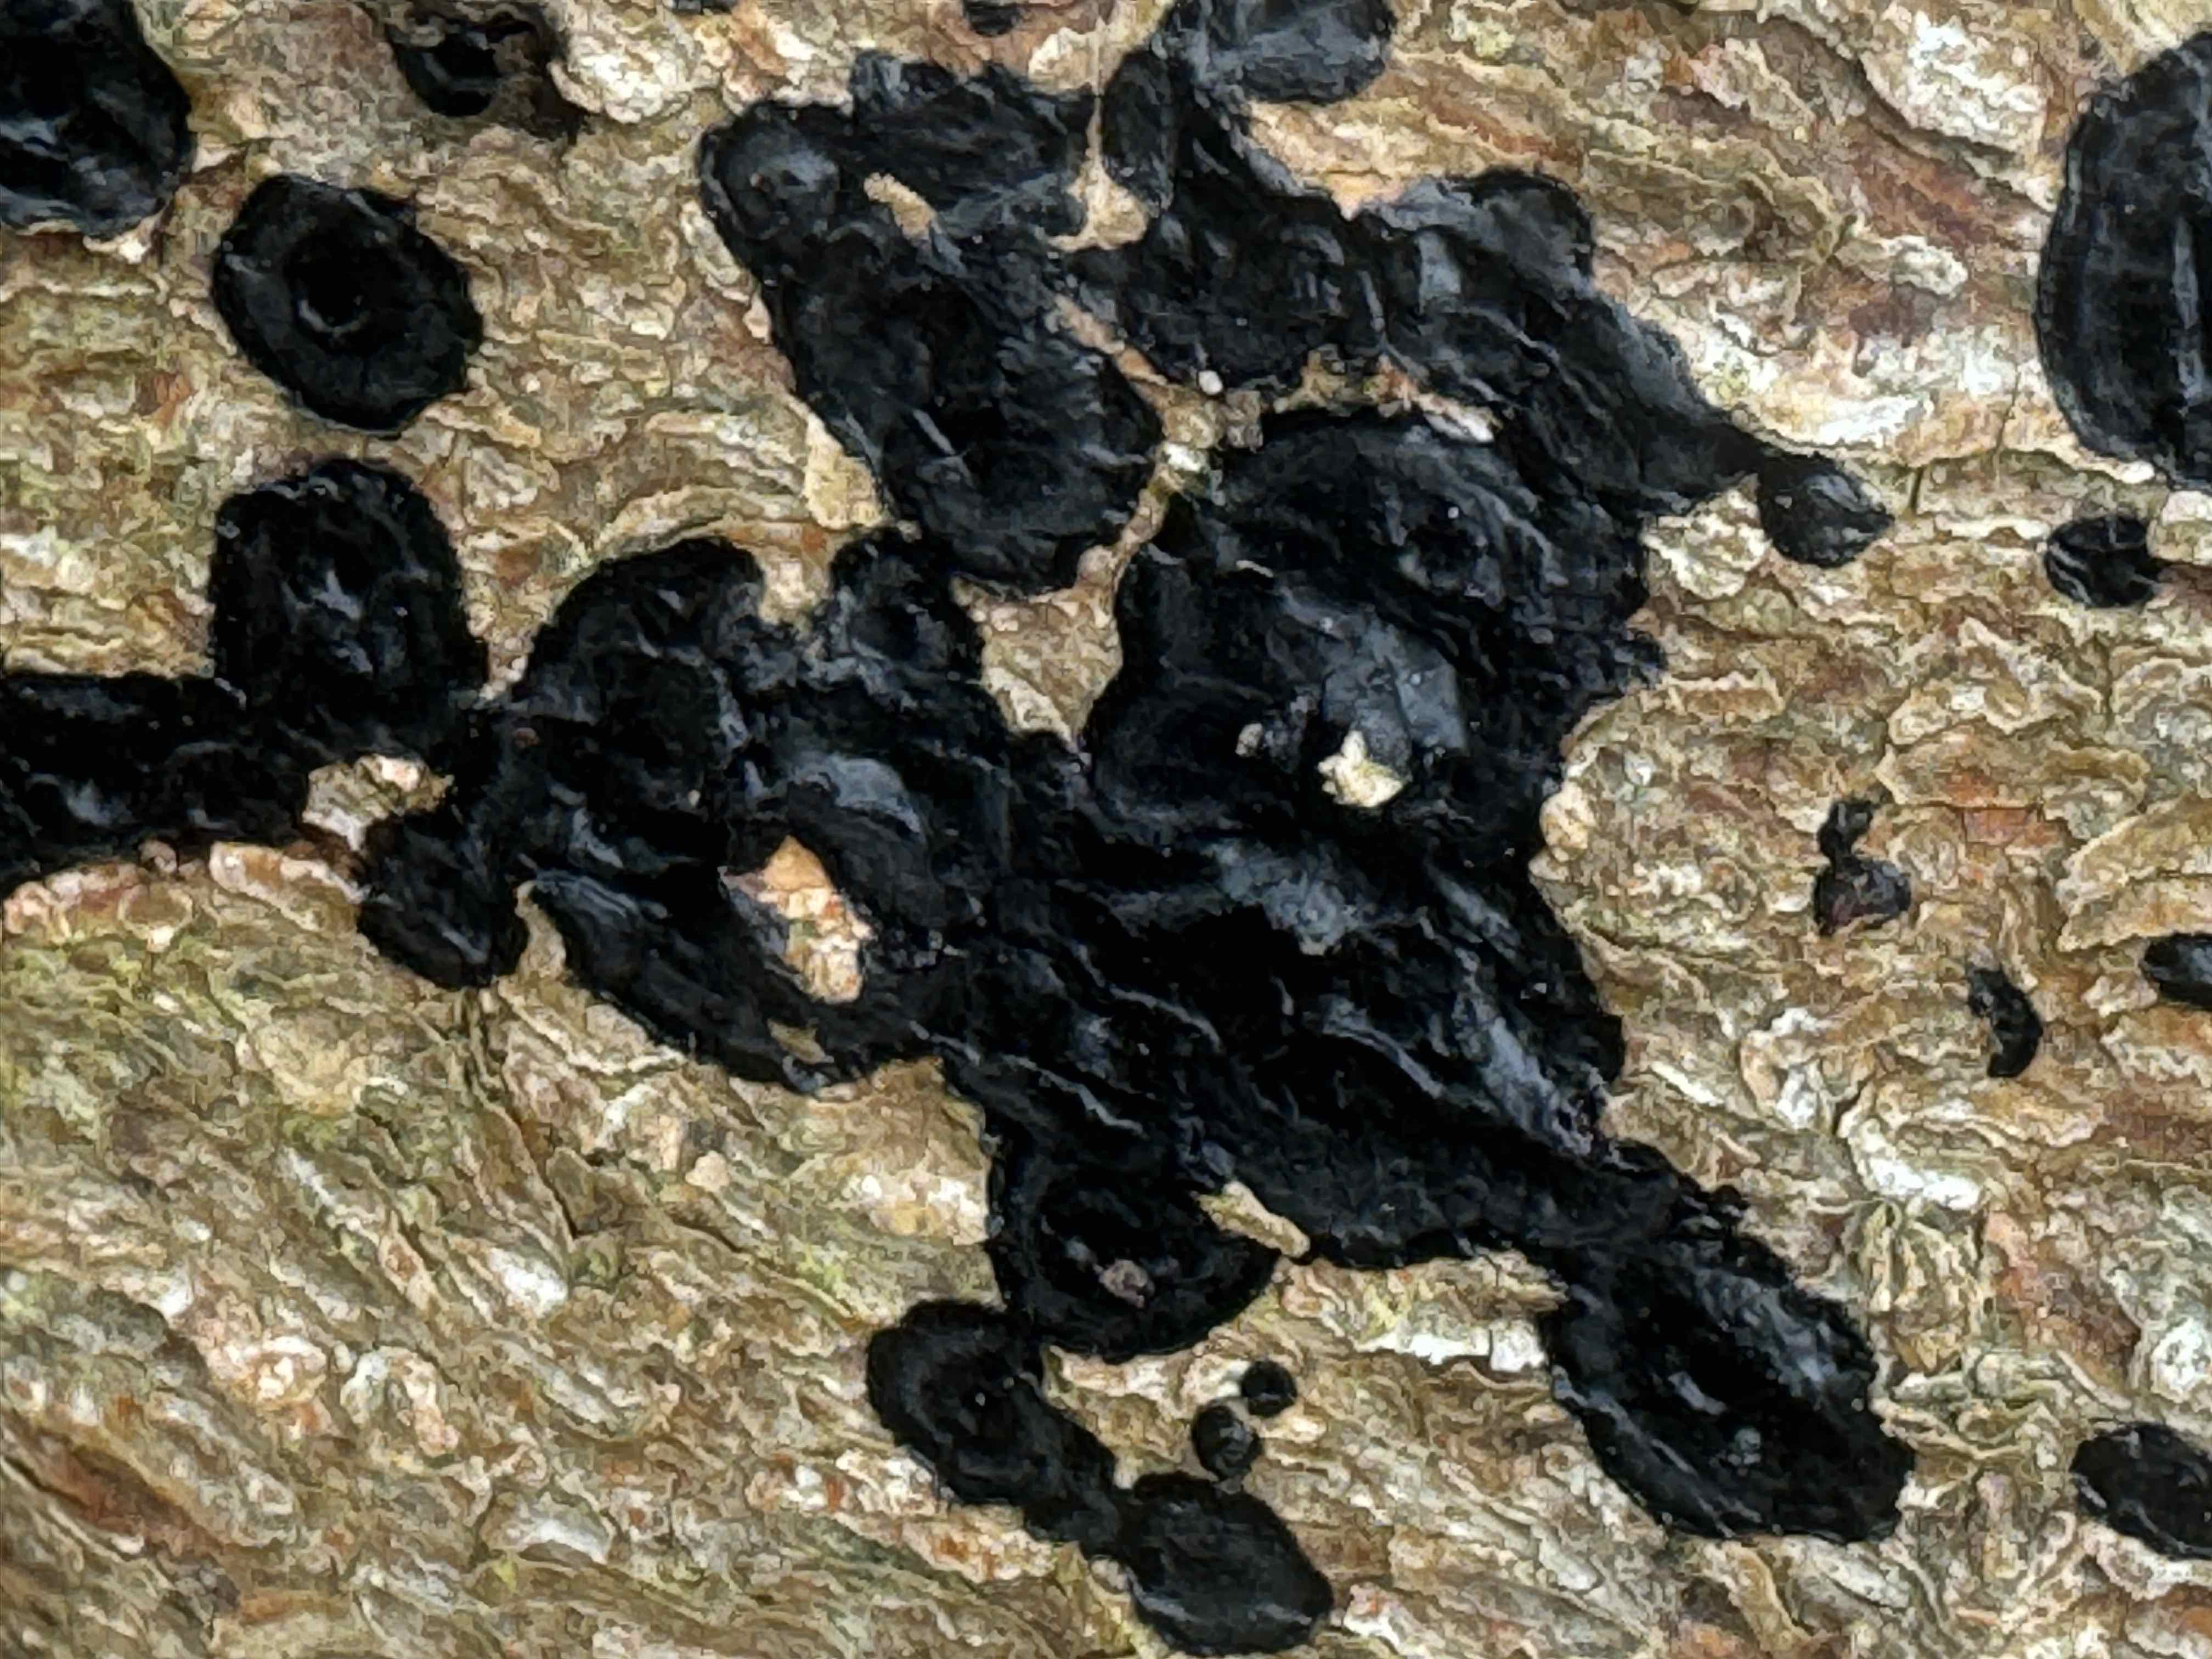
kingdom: Fungi
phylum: Basidiomycota
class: Agaricomycetes
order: Auriculariales
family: Auriculariaceae
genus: Exidia
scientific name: Exidia pithya
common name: gran-bævretop
